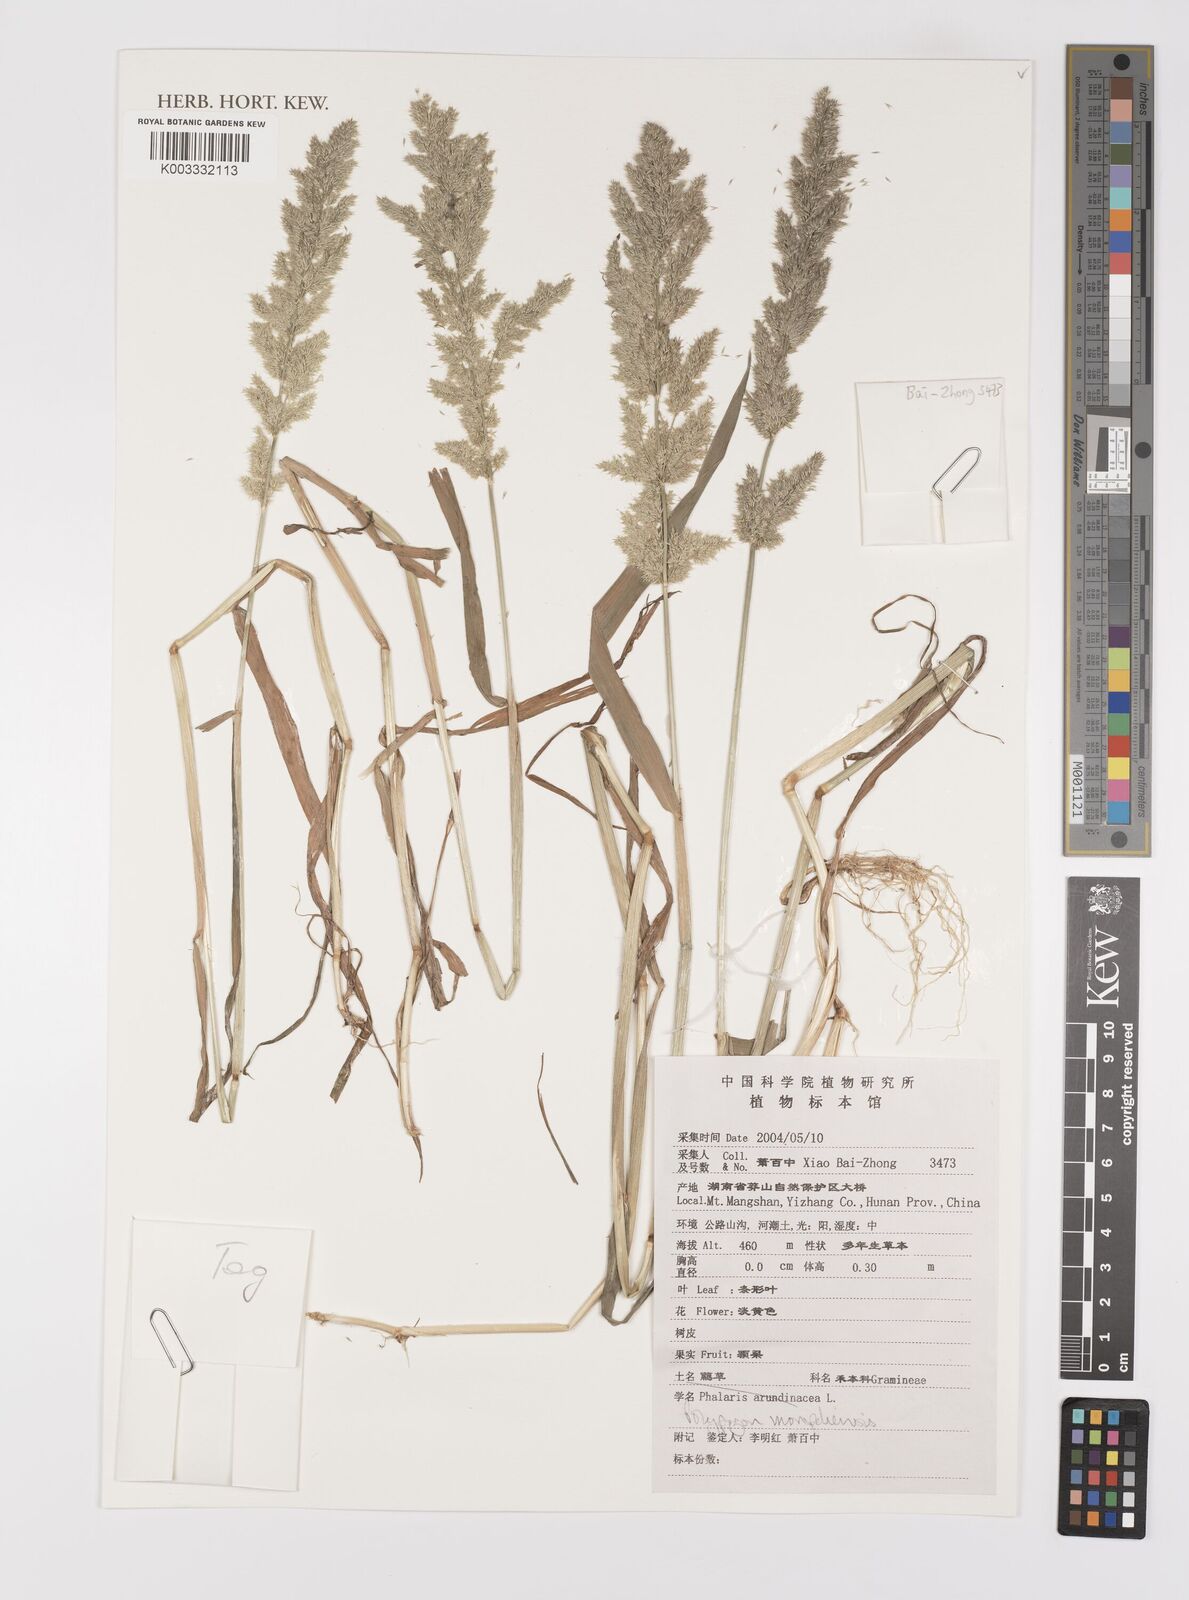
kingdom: Plantae
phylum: Tracheophyta
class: Liliopsida
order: Poales
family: Poaceae
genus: Polypogon
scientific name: Polypogon monspeliensis
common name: Annual rabbitsfoot grass
